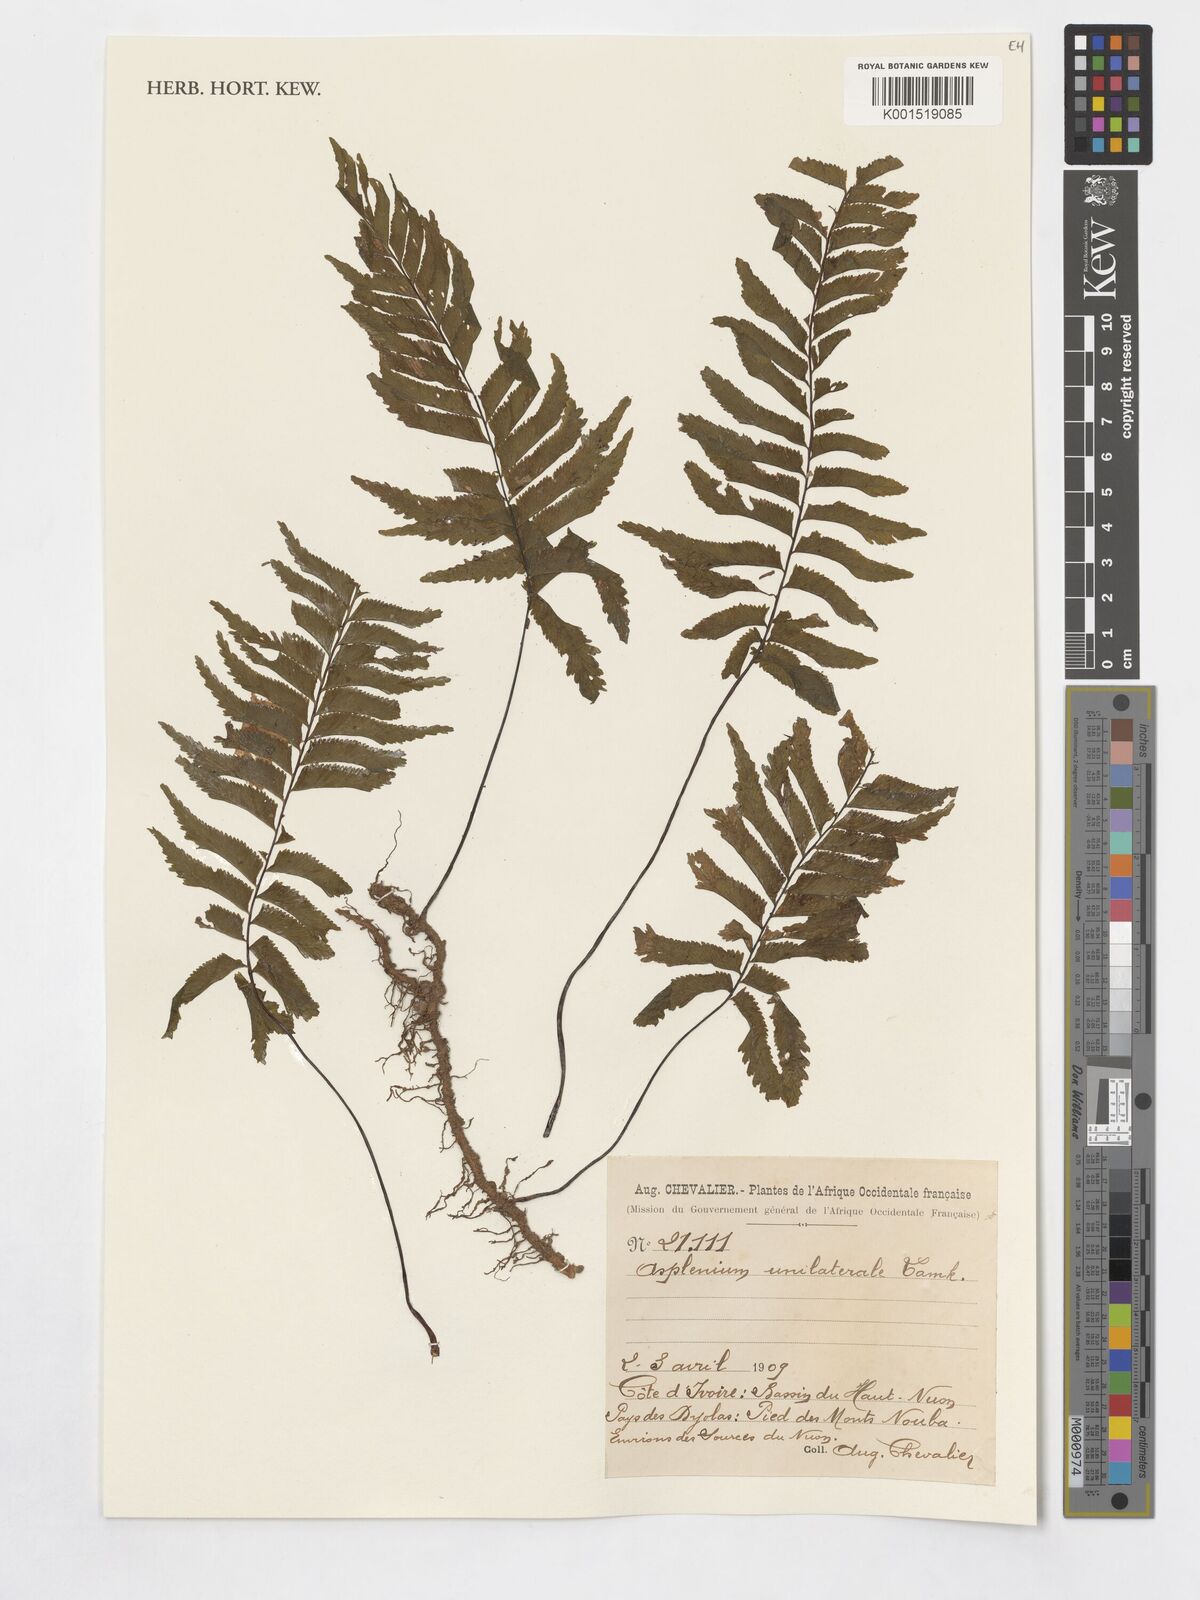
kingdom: Plantae
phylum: Tracheophyta
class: Polypodiopsida
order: Polypodiales
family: Aspleniaceae
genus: Hymenasplenium
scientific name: Hymenasplenium unilaterale
